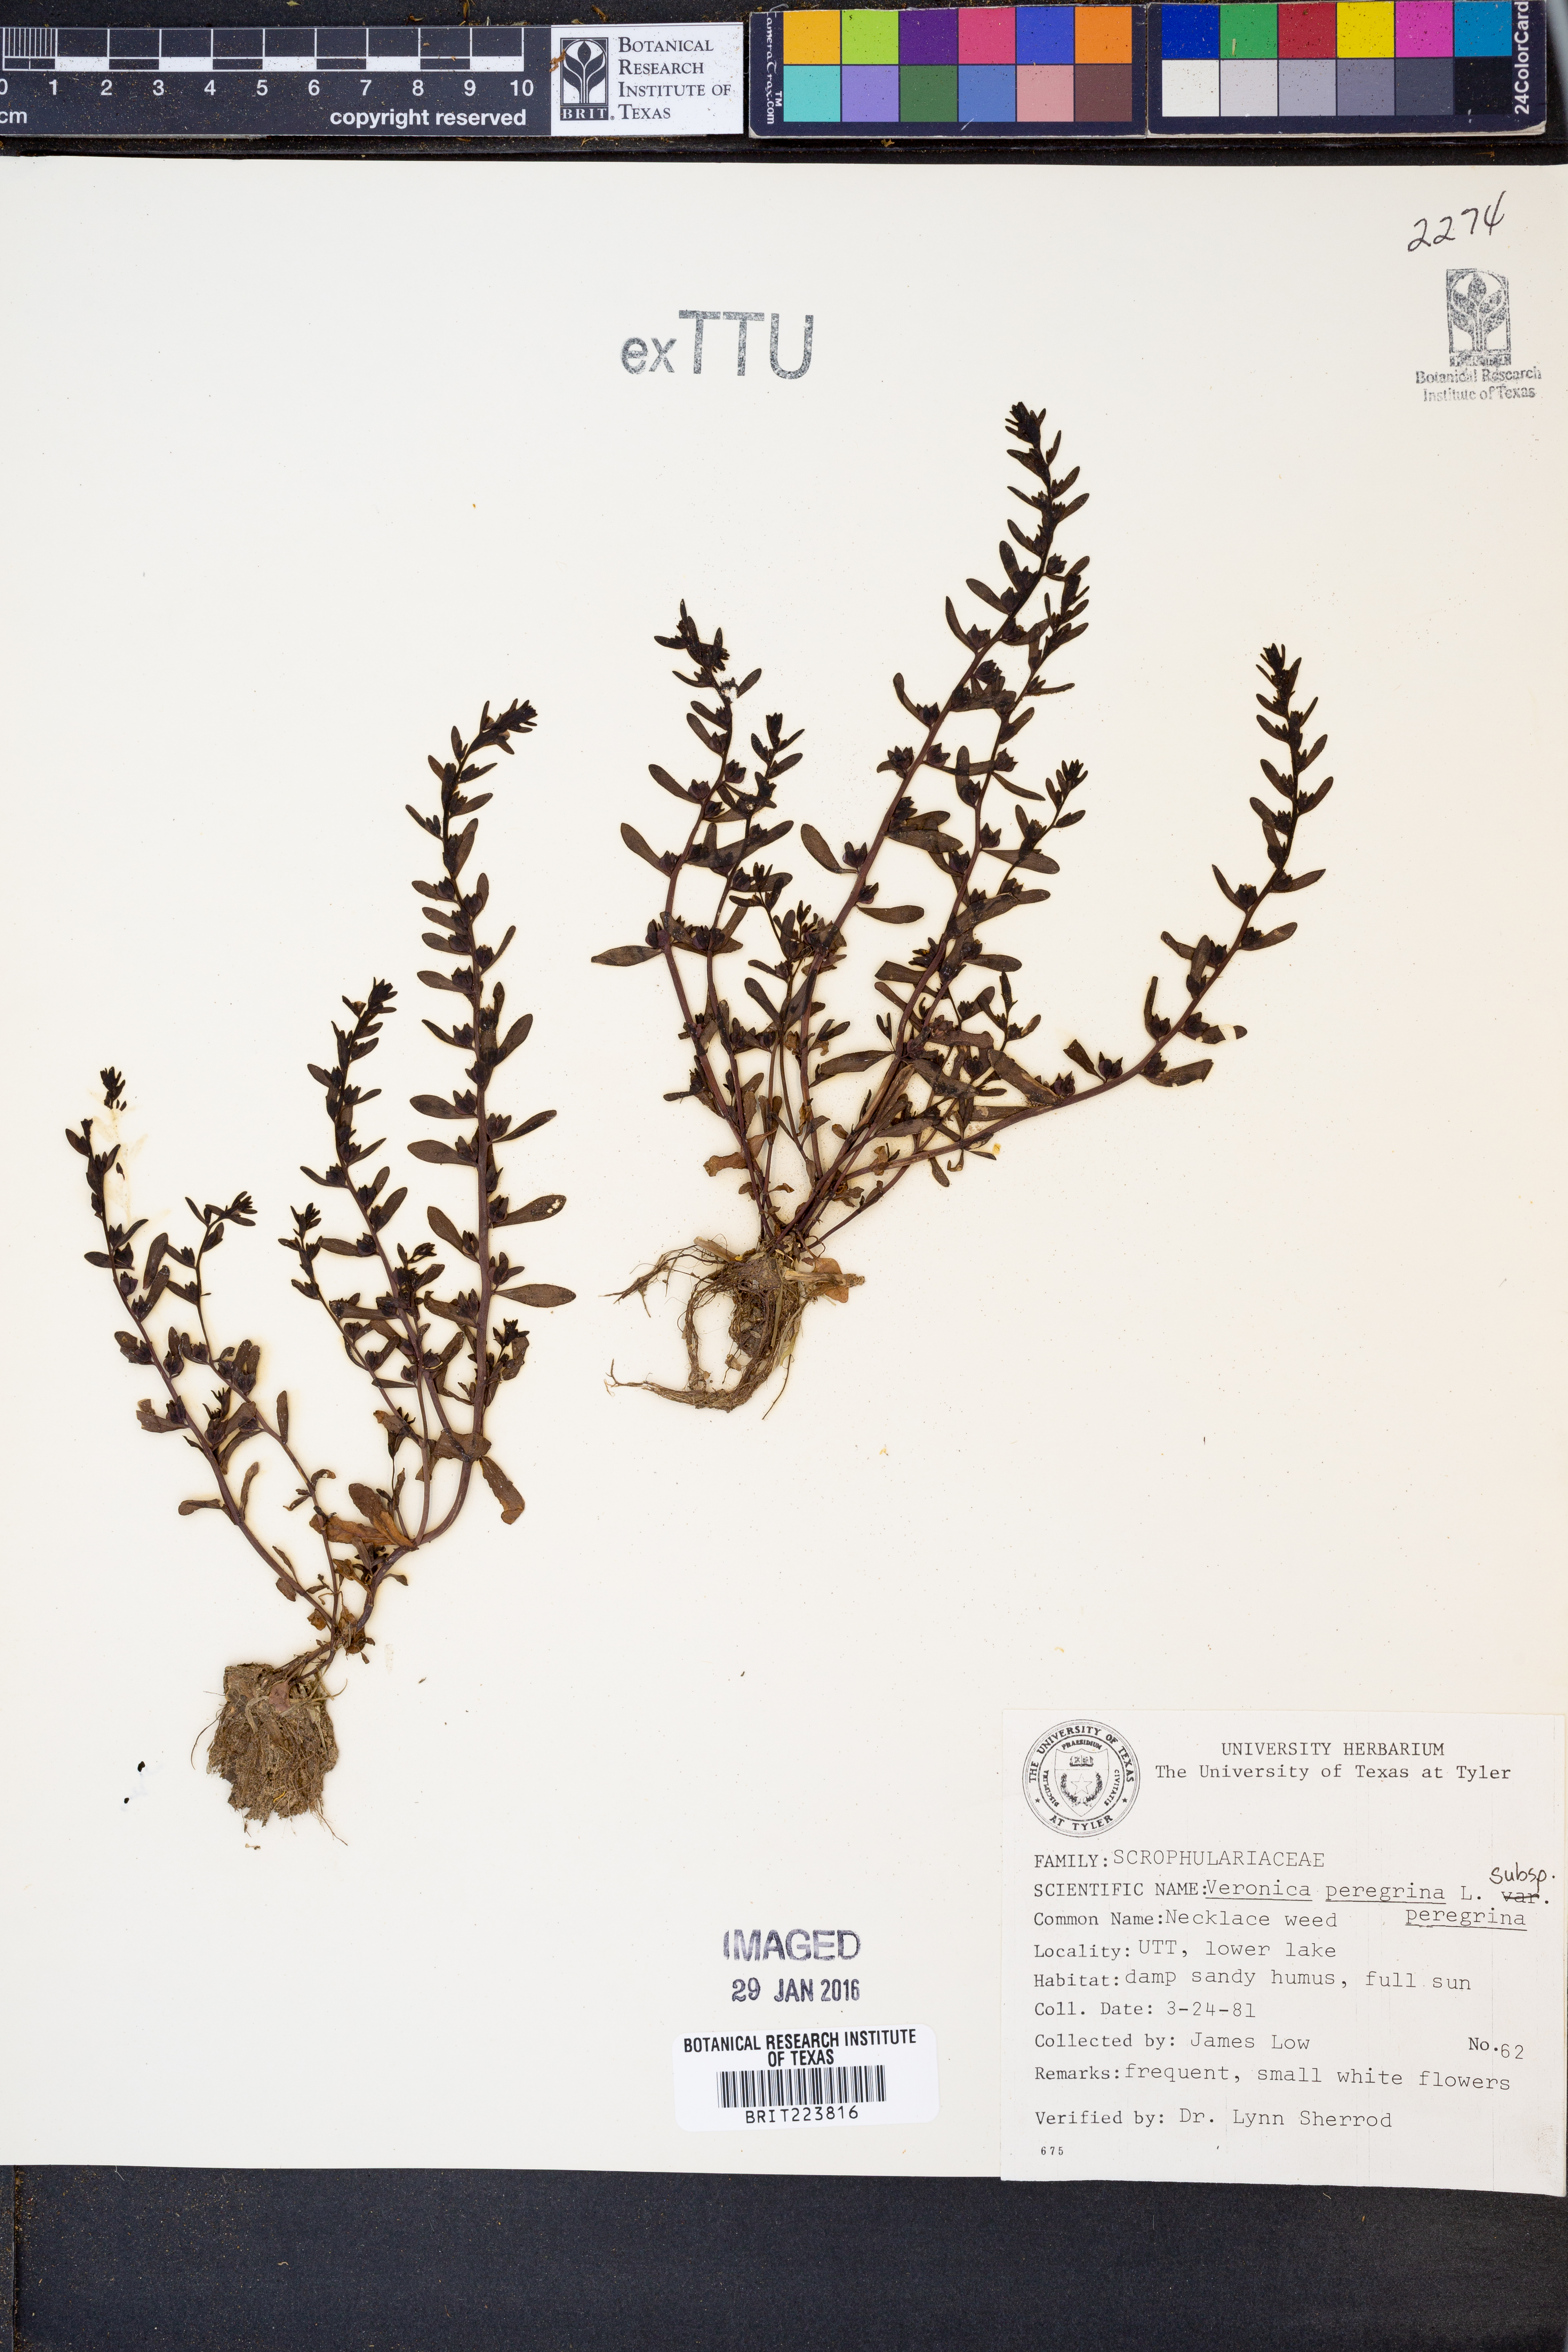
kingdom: Plantae
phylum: Tracheophyta
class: Magnoliopsida
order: Lamiales
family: Plantaginaceae
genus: Veronica
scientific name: Veronica peregrina
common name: Neckweed
